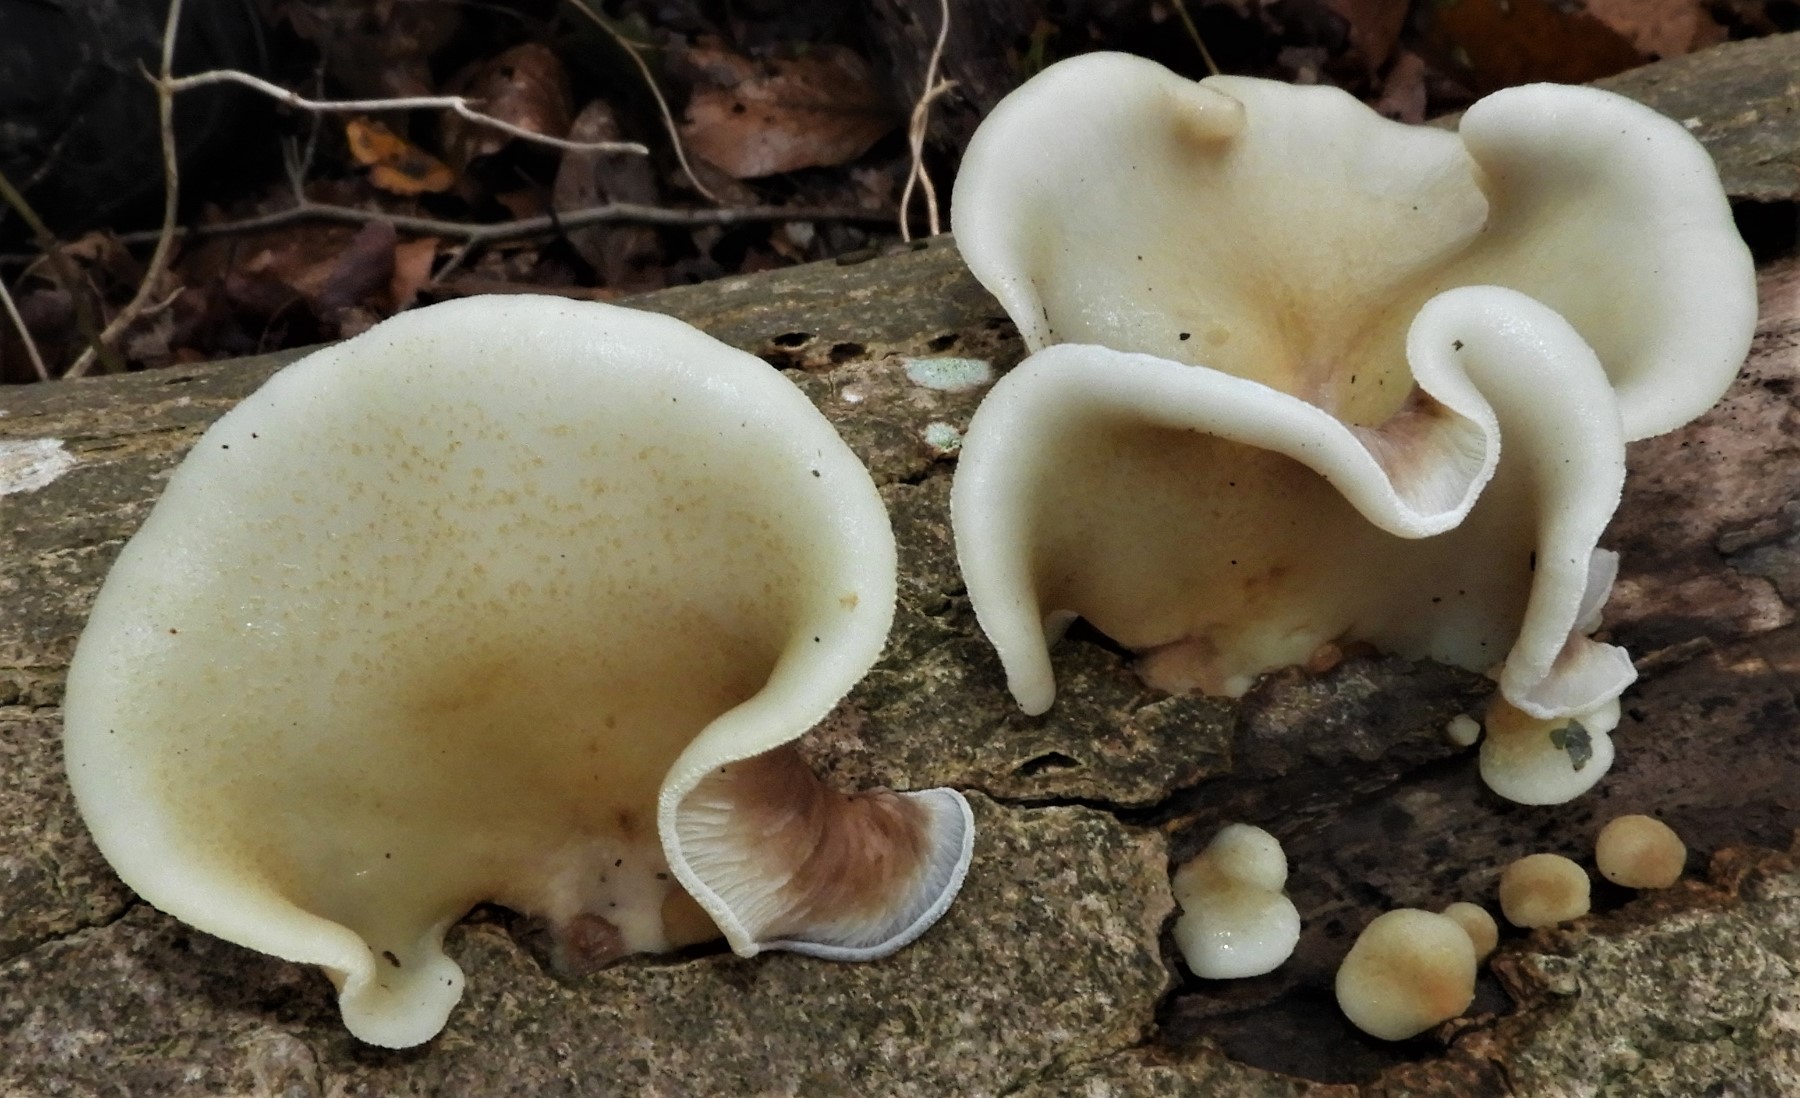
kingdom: Fungi
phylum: Basidiomycota
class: Agaricomycetes
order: Agaricales
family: Crepidotaceae
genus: Crepidotus
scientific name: Crepidotus mollis
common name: blød muslingesvamp
